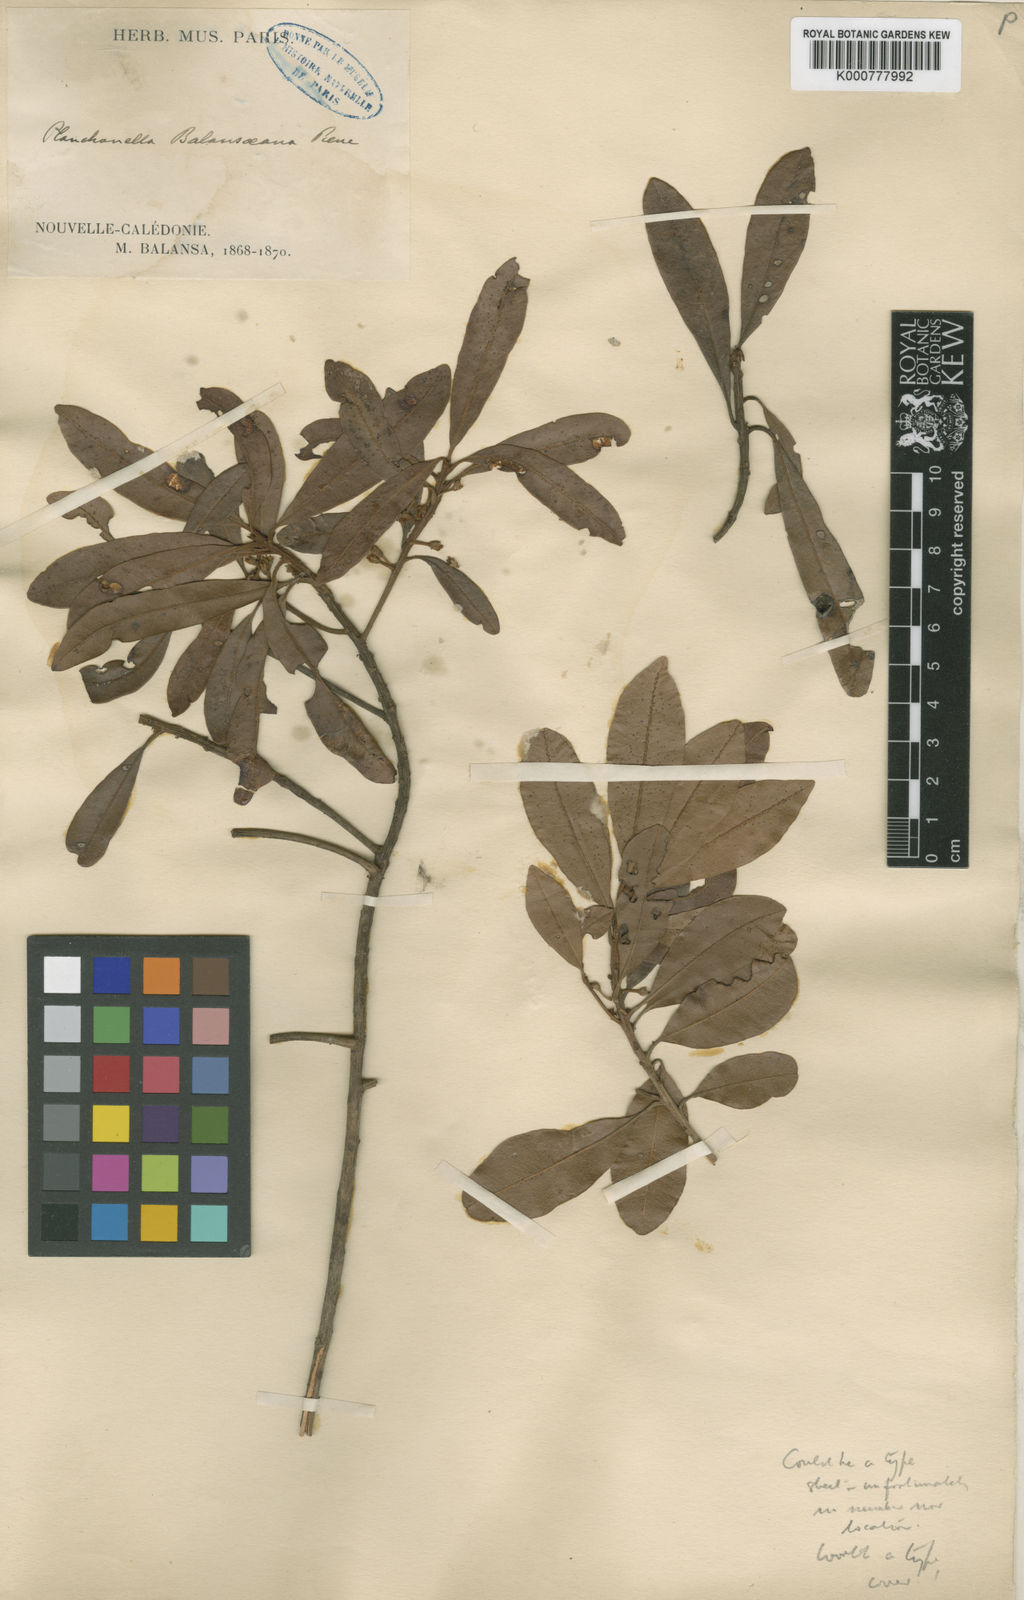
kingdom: Plantae
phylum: Tracheophyta
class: Magnoliopsida
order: Ericales
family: Sapotaceae
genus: Pleioluma
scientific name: Pleioluma balansana
